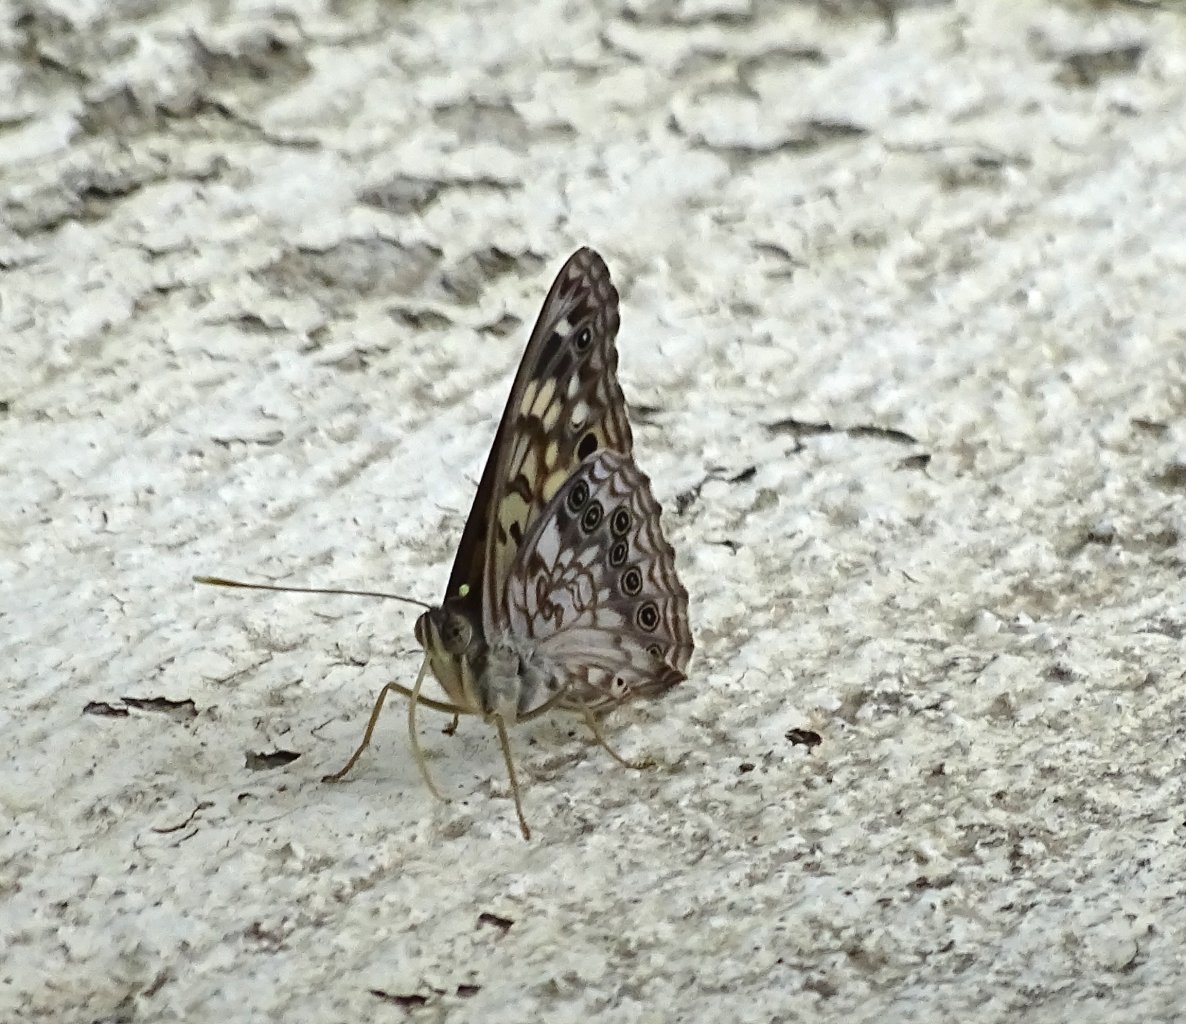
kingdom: Animalia
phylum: Arthropoda
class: Insecta
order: Lepidoptera
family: Nymphalidae
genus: Asterocampa
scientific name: Asterocampa celtis
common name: Hackberry Emperor
